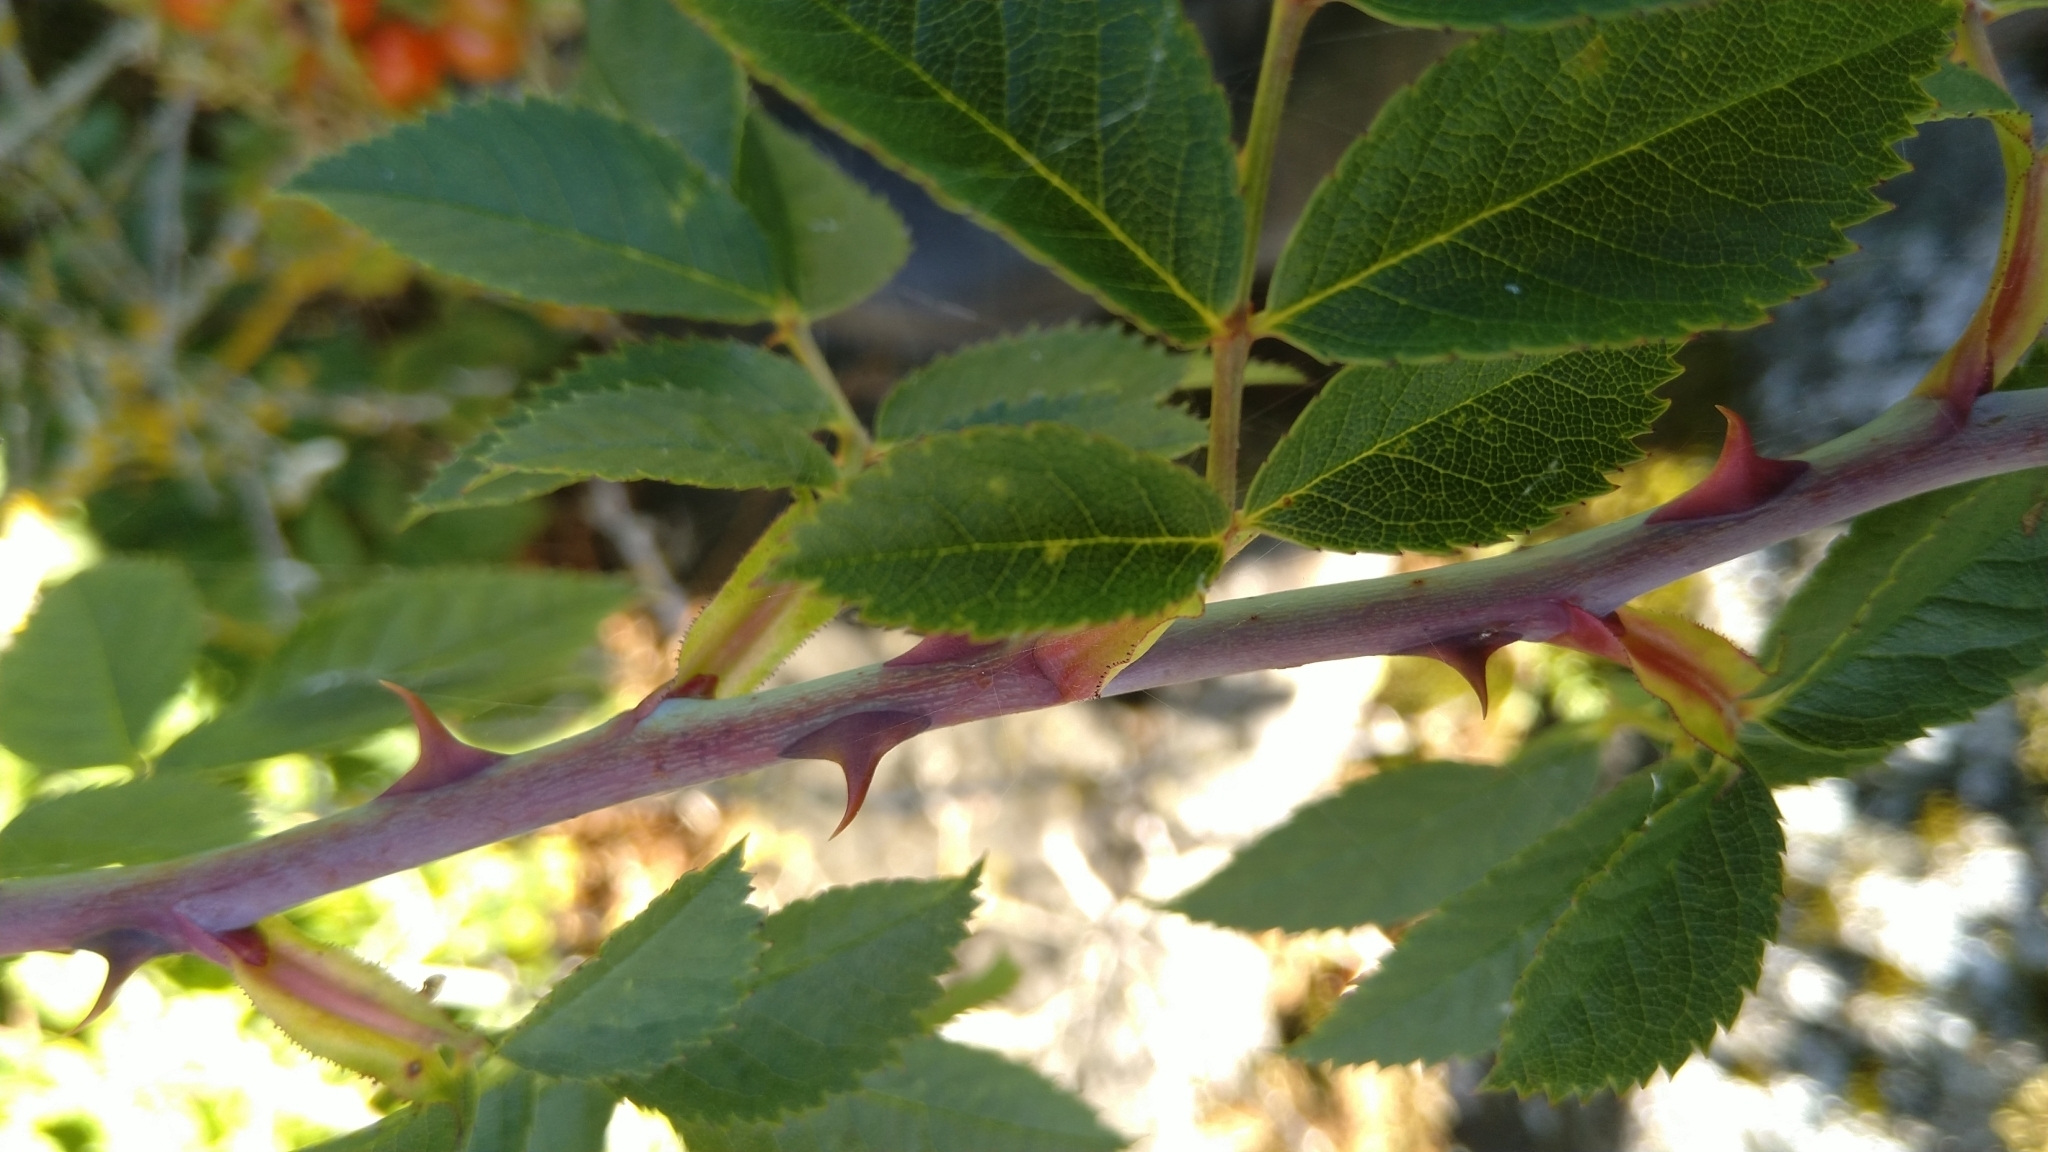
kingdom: Plantae
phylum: Tracheophyta
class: Magnoliopsida
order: Rosales
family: Rosaceae
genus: Rosa
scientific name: Rosa
